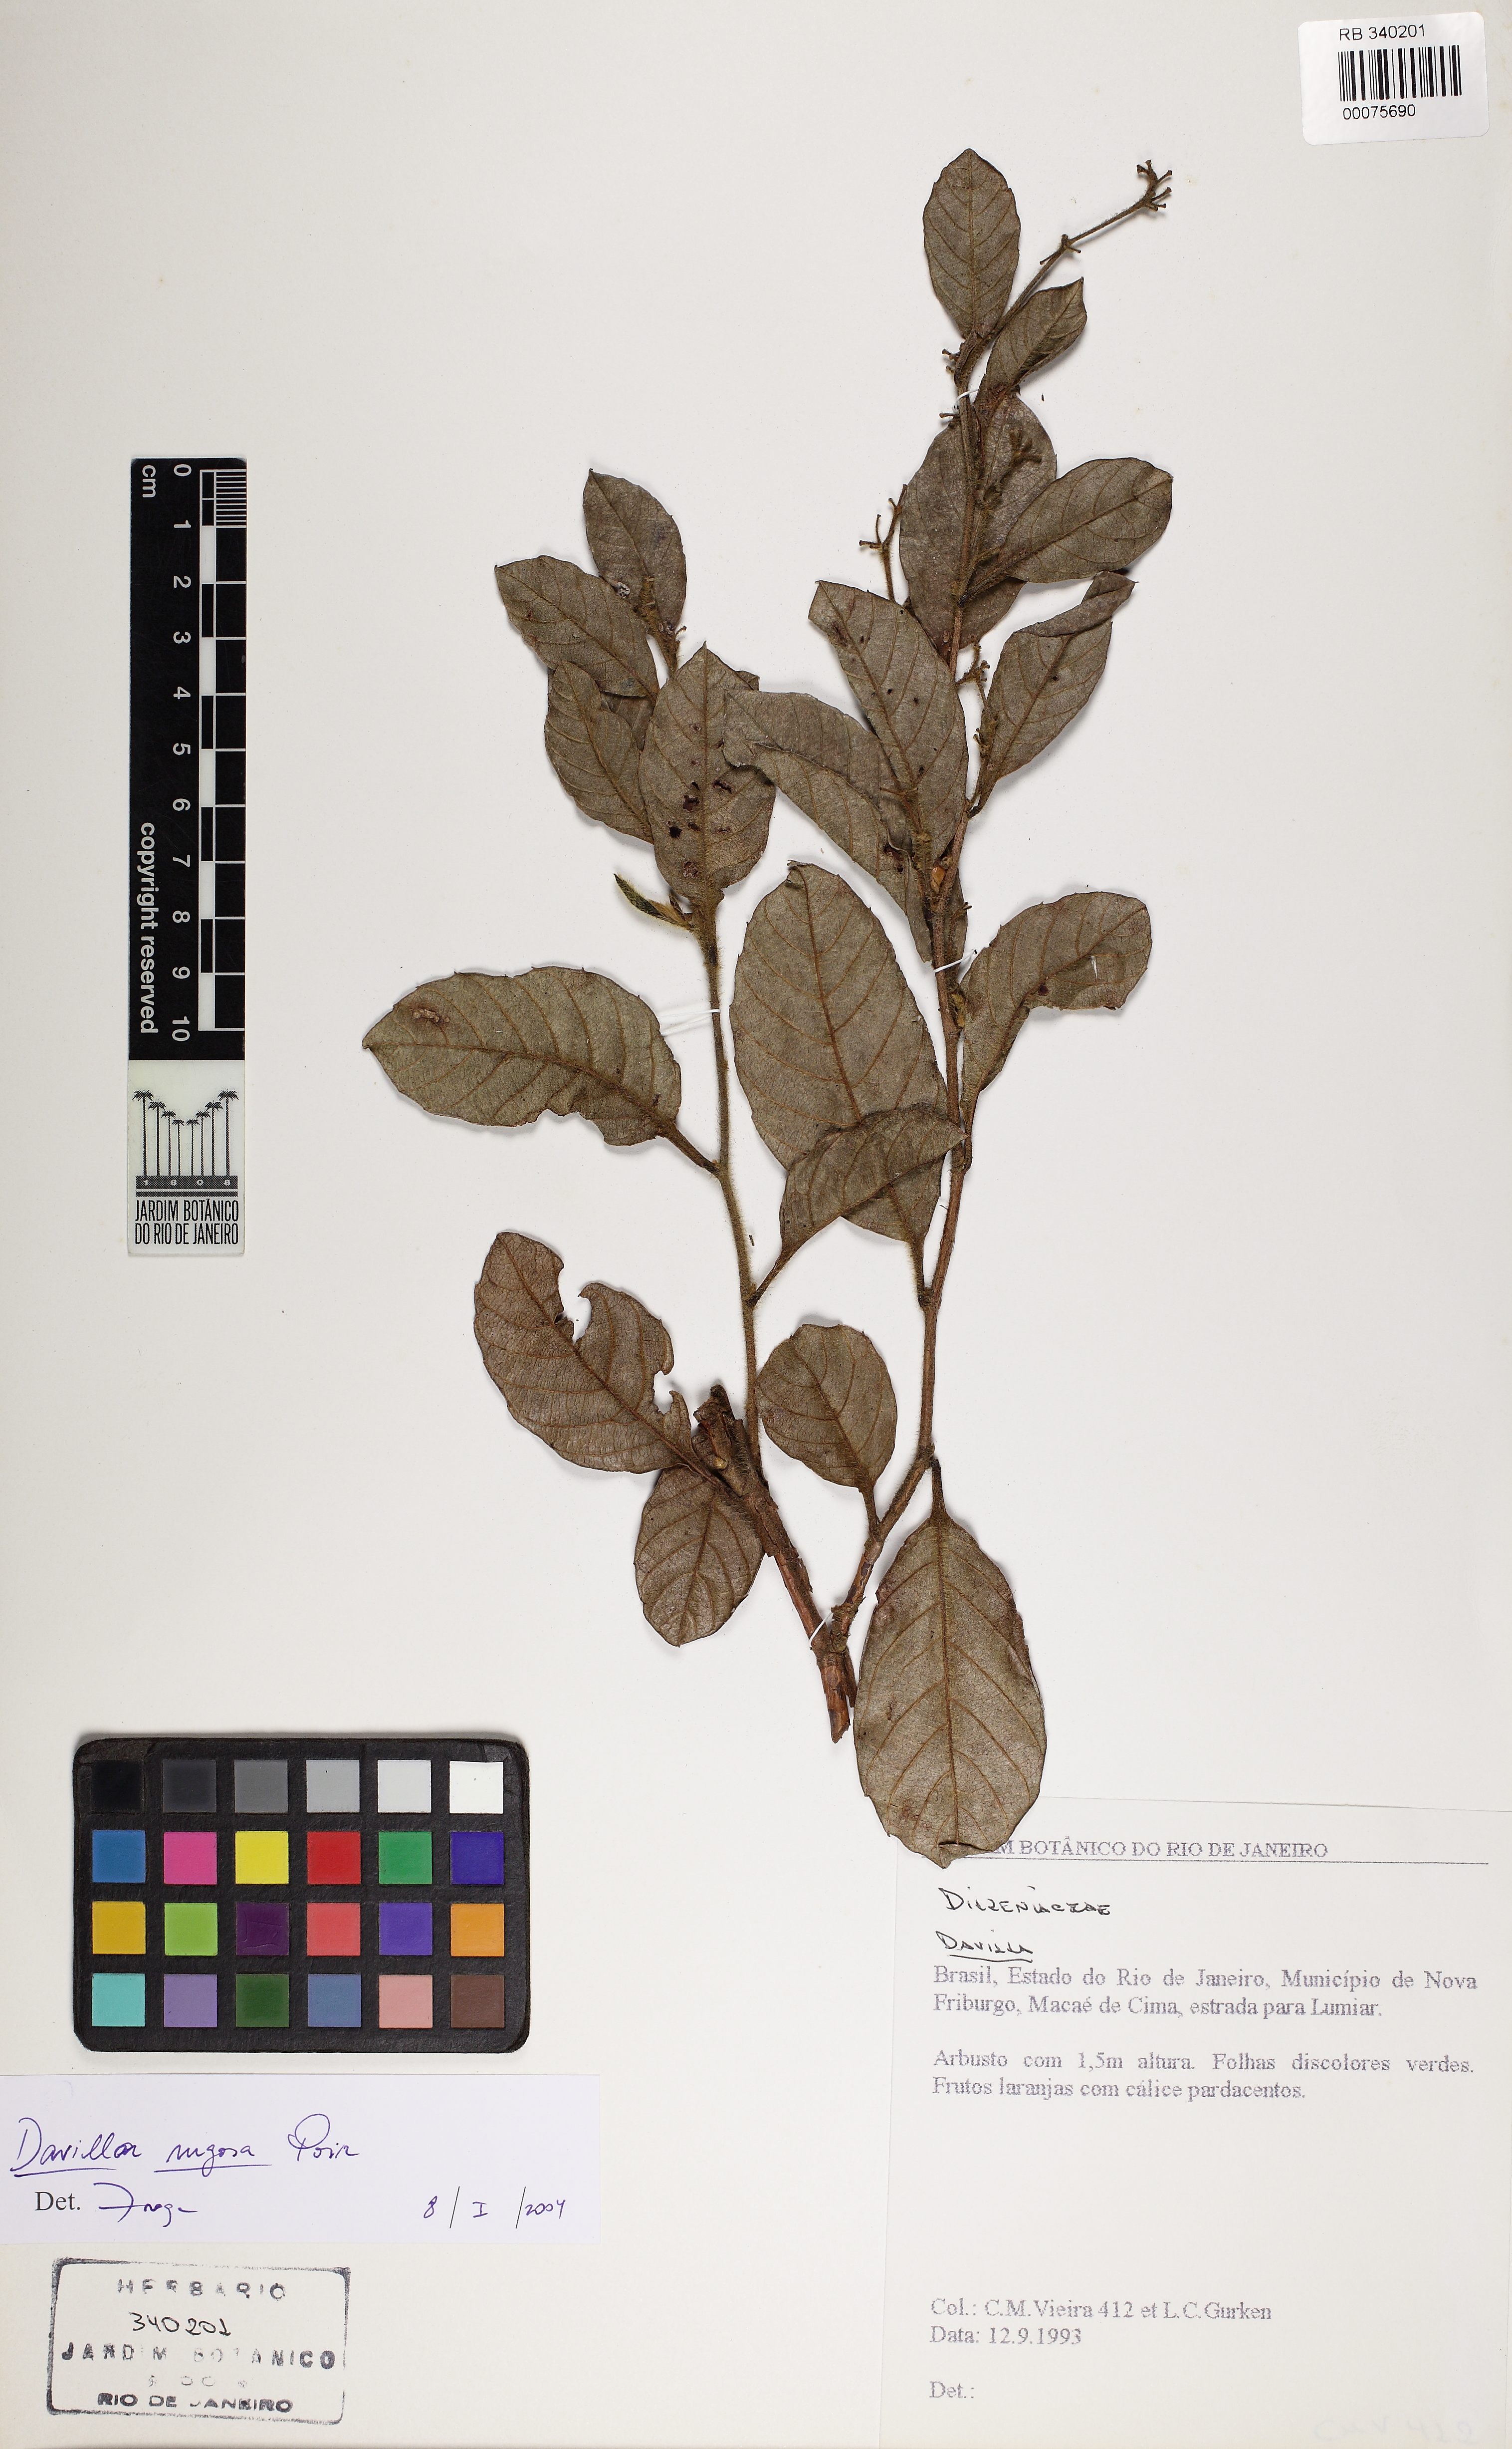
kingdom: Plantae
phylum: Tracheophyta
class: Magnoliopsida
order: Dilleniales
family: Dilleniaceae
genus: Davilla
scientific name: Davilla rugosa
